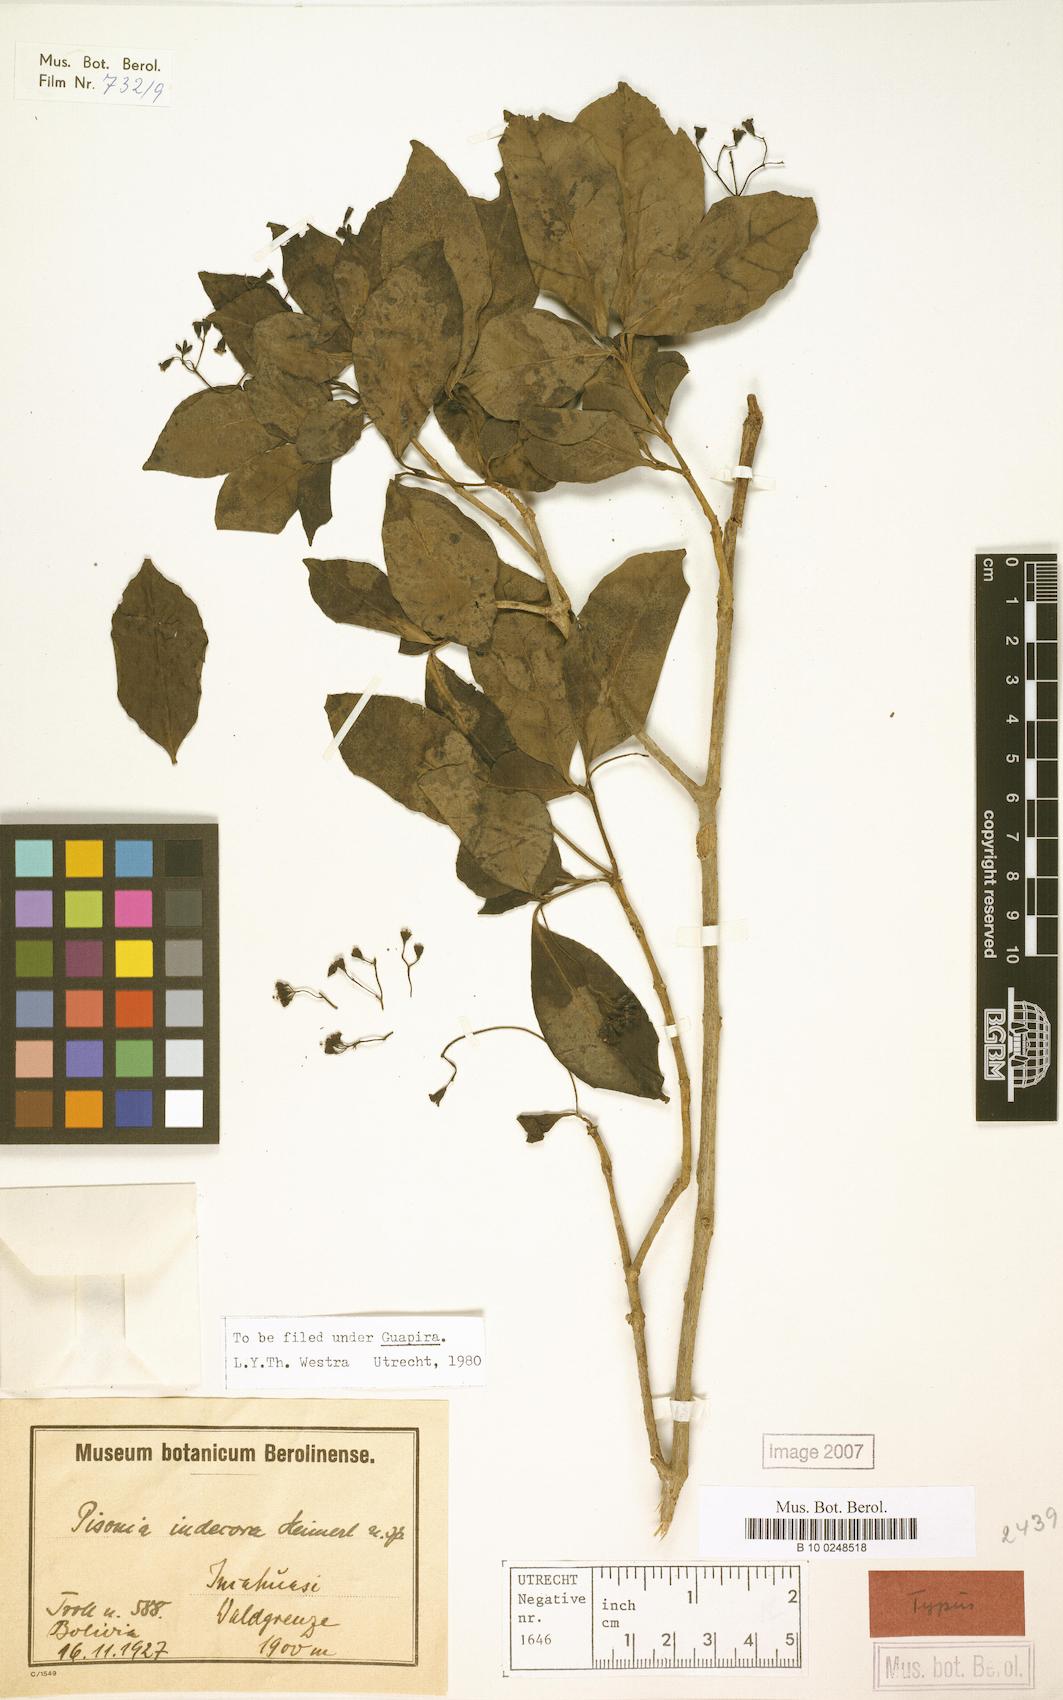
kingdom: Plantae
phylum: Tracheophyta
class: Magnoliopsida
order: Caryophyllales
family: Nyctaginaceae
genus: Pisonia
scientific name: Pisonia indecora
